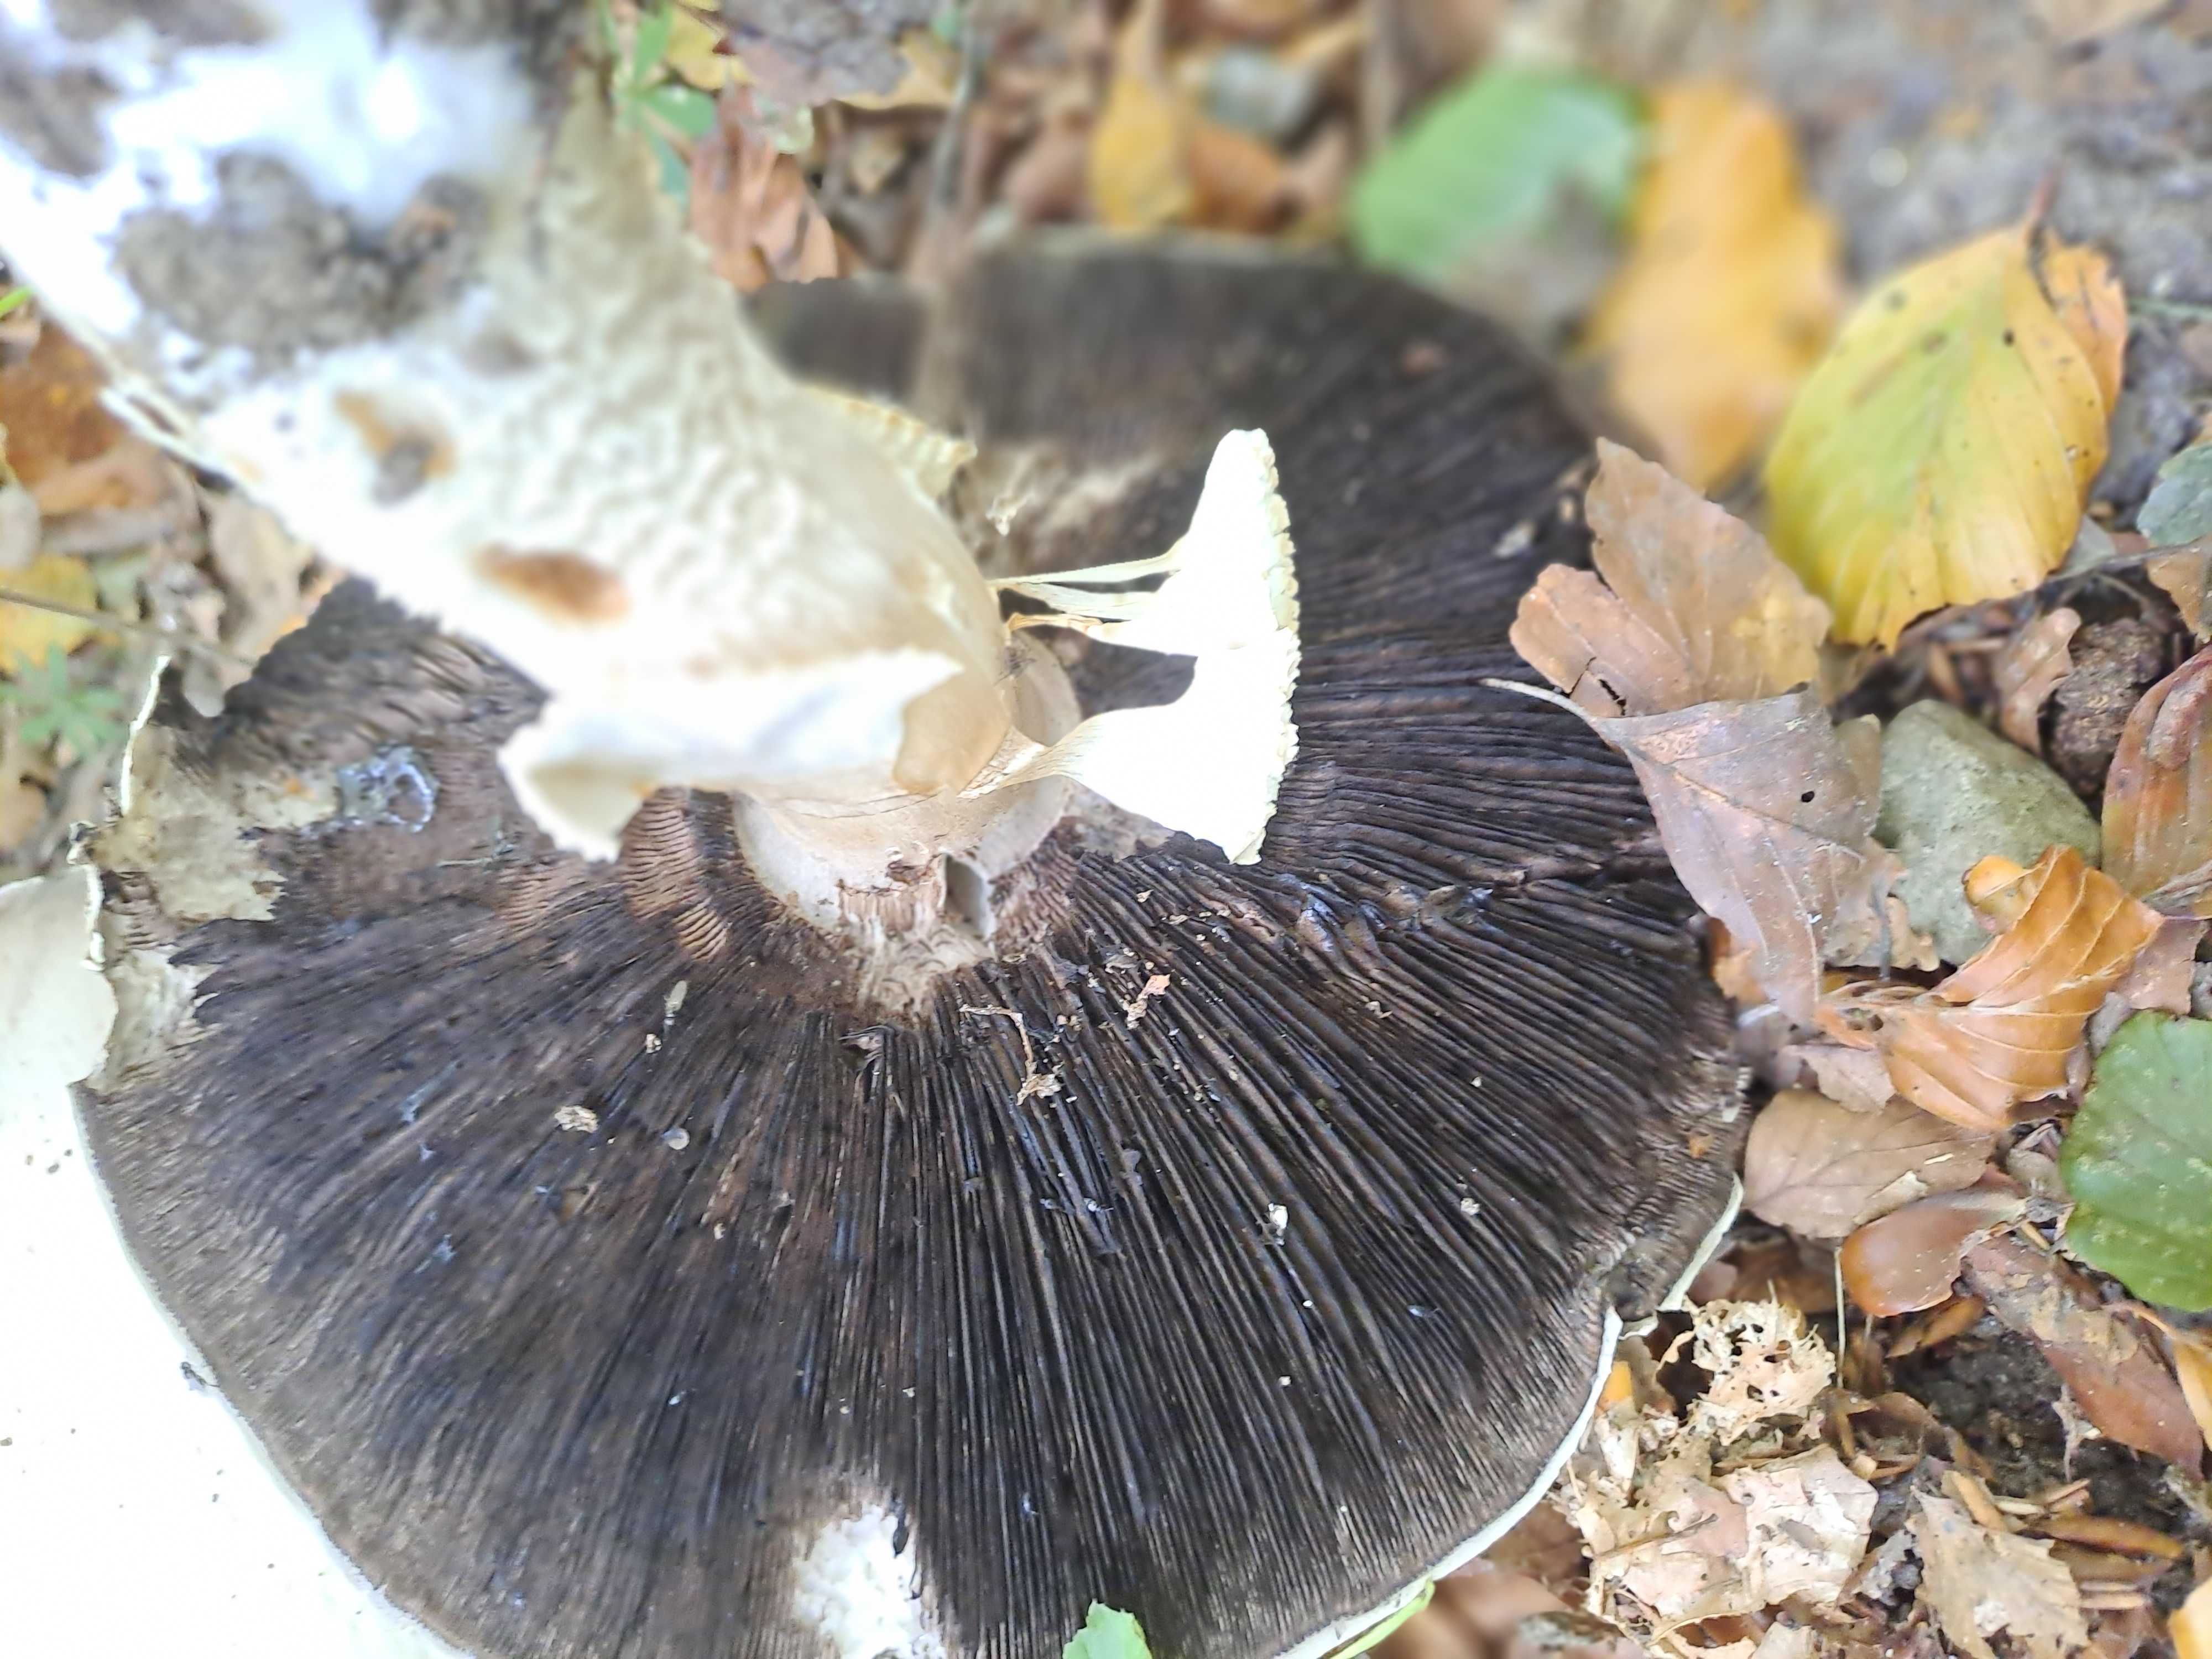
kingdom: Fungi
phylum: Basidiomycota
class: Agaricomycetes
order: Agaricales
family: Agaricaceae
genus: Agaricus
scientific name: Agaricus
